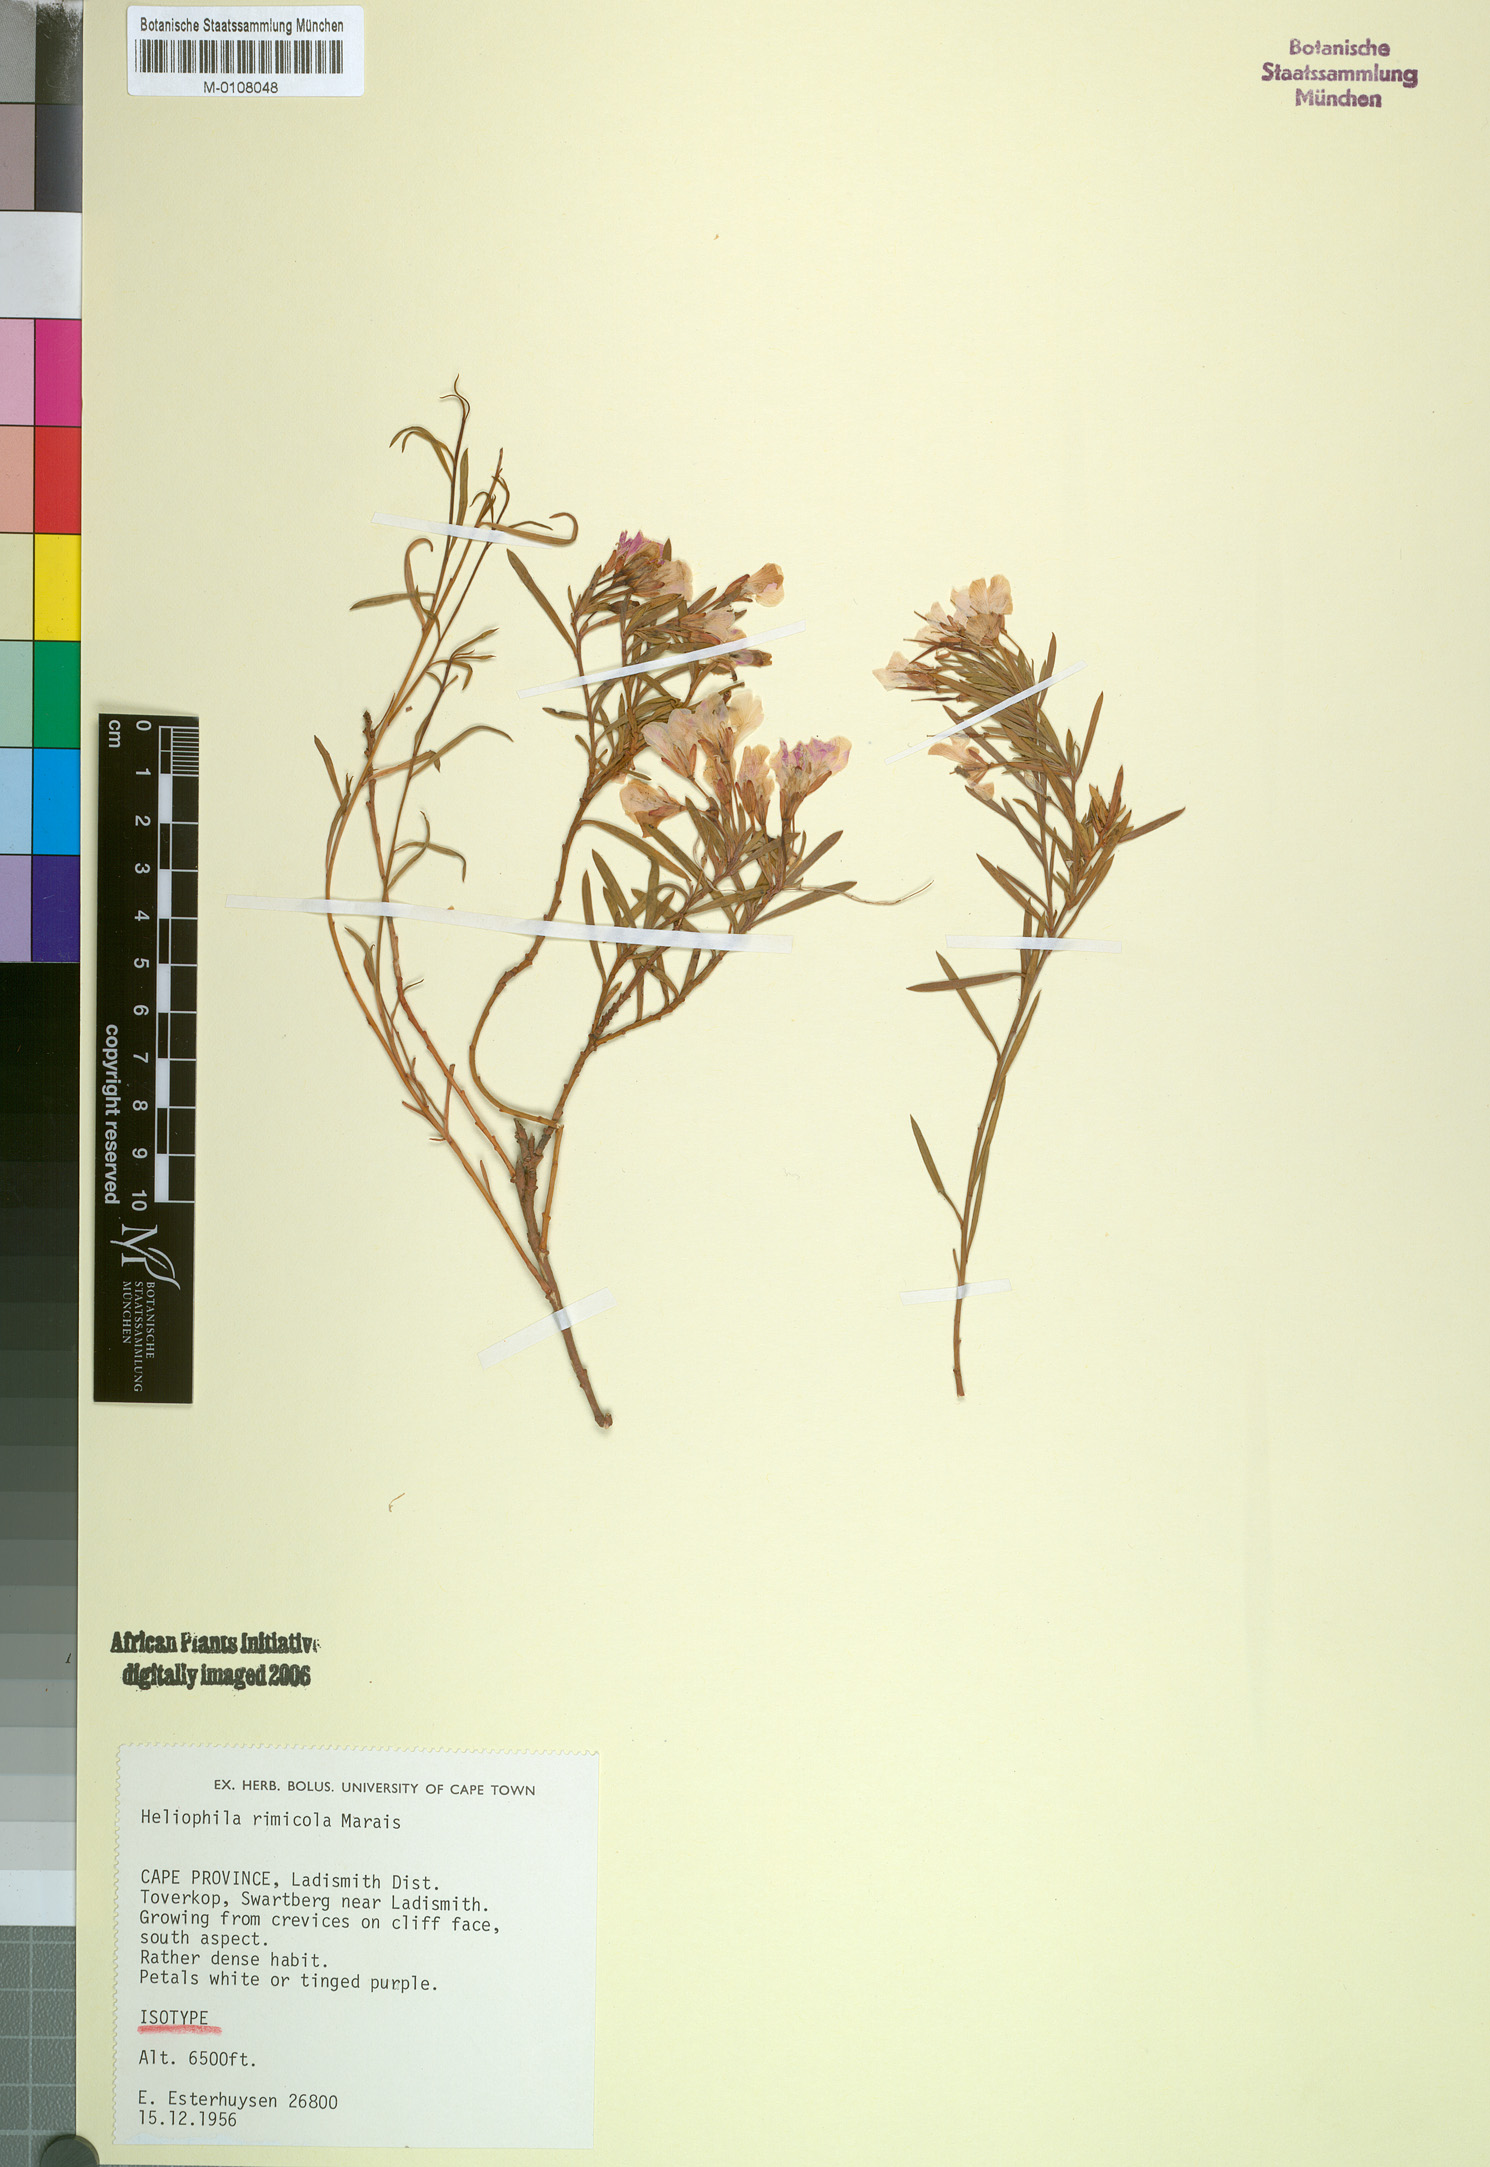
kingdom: Plantae
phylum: Tracheophyta
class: Magnoliopsida
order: Brassicales
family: Brassicaceae
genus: Heliophila
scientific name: Heliophila rimicola
